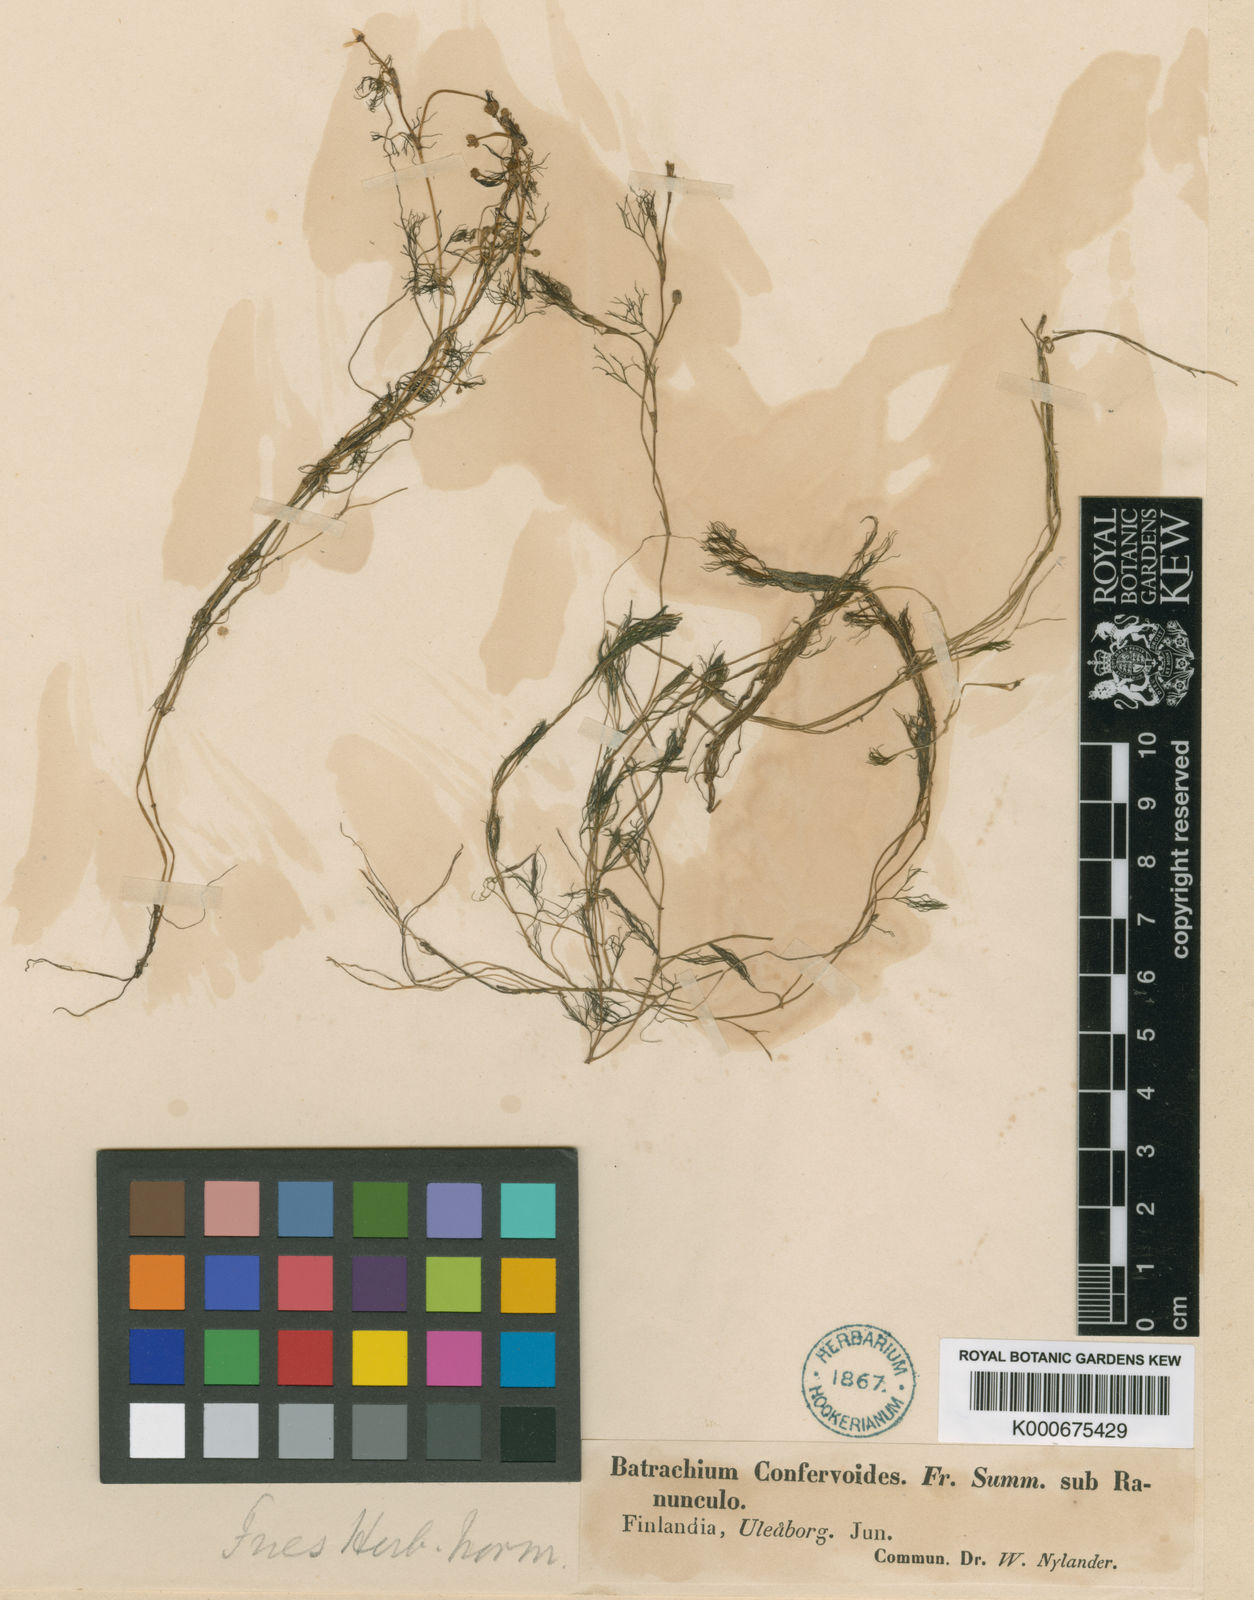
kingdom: Plantae
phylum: Tracheophyta
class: Magnoliopsida
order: Ranunculales
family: Ranunculaceae
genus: Ranunculus
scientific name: Ranunculus
